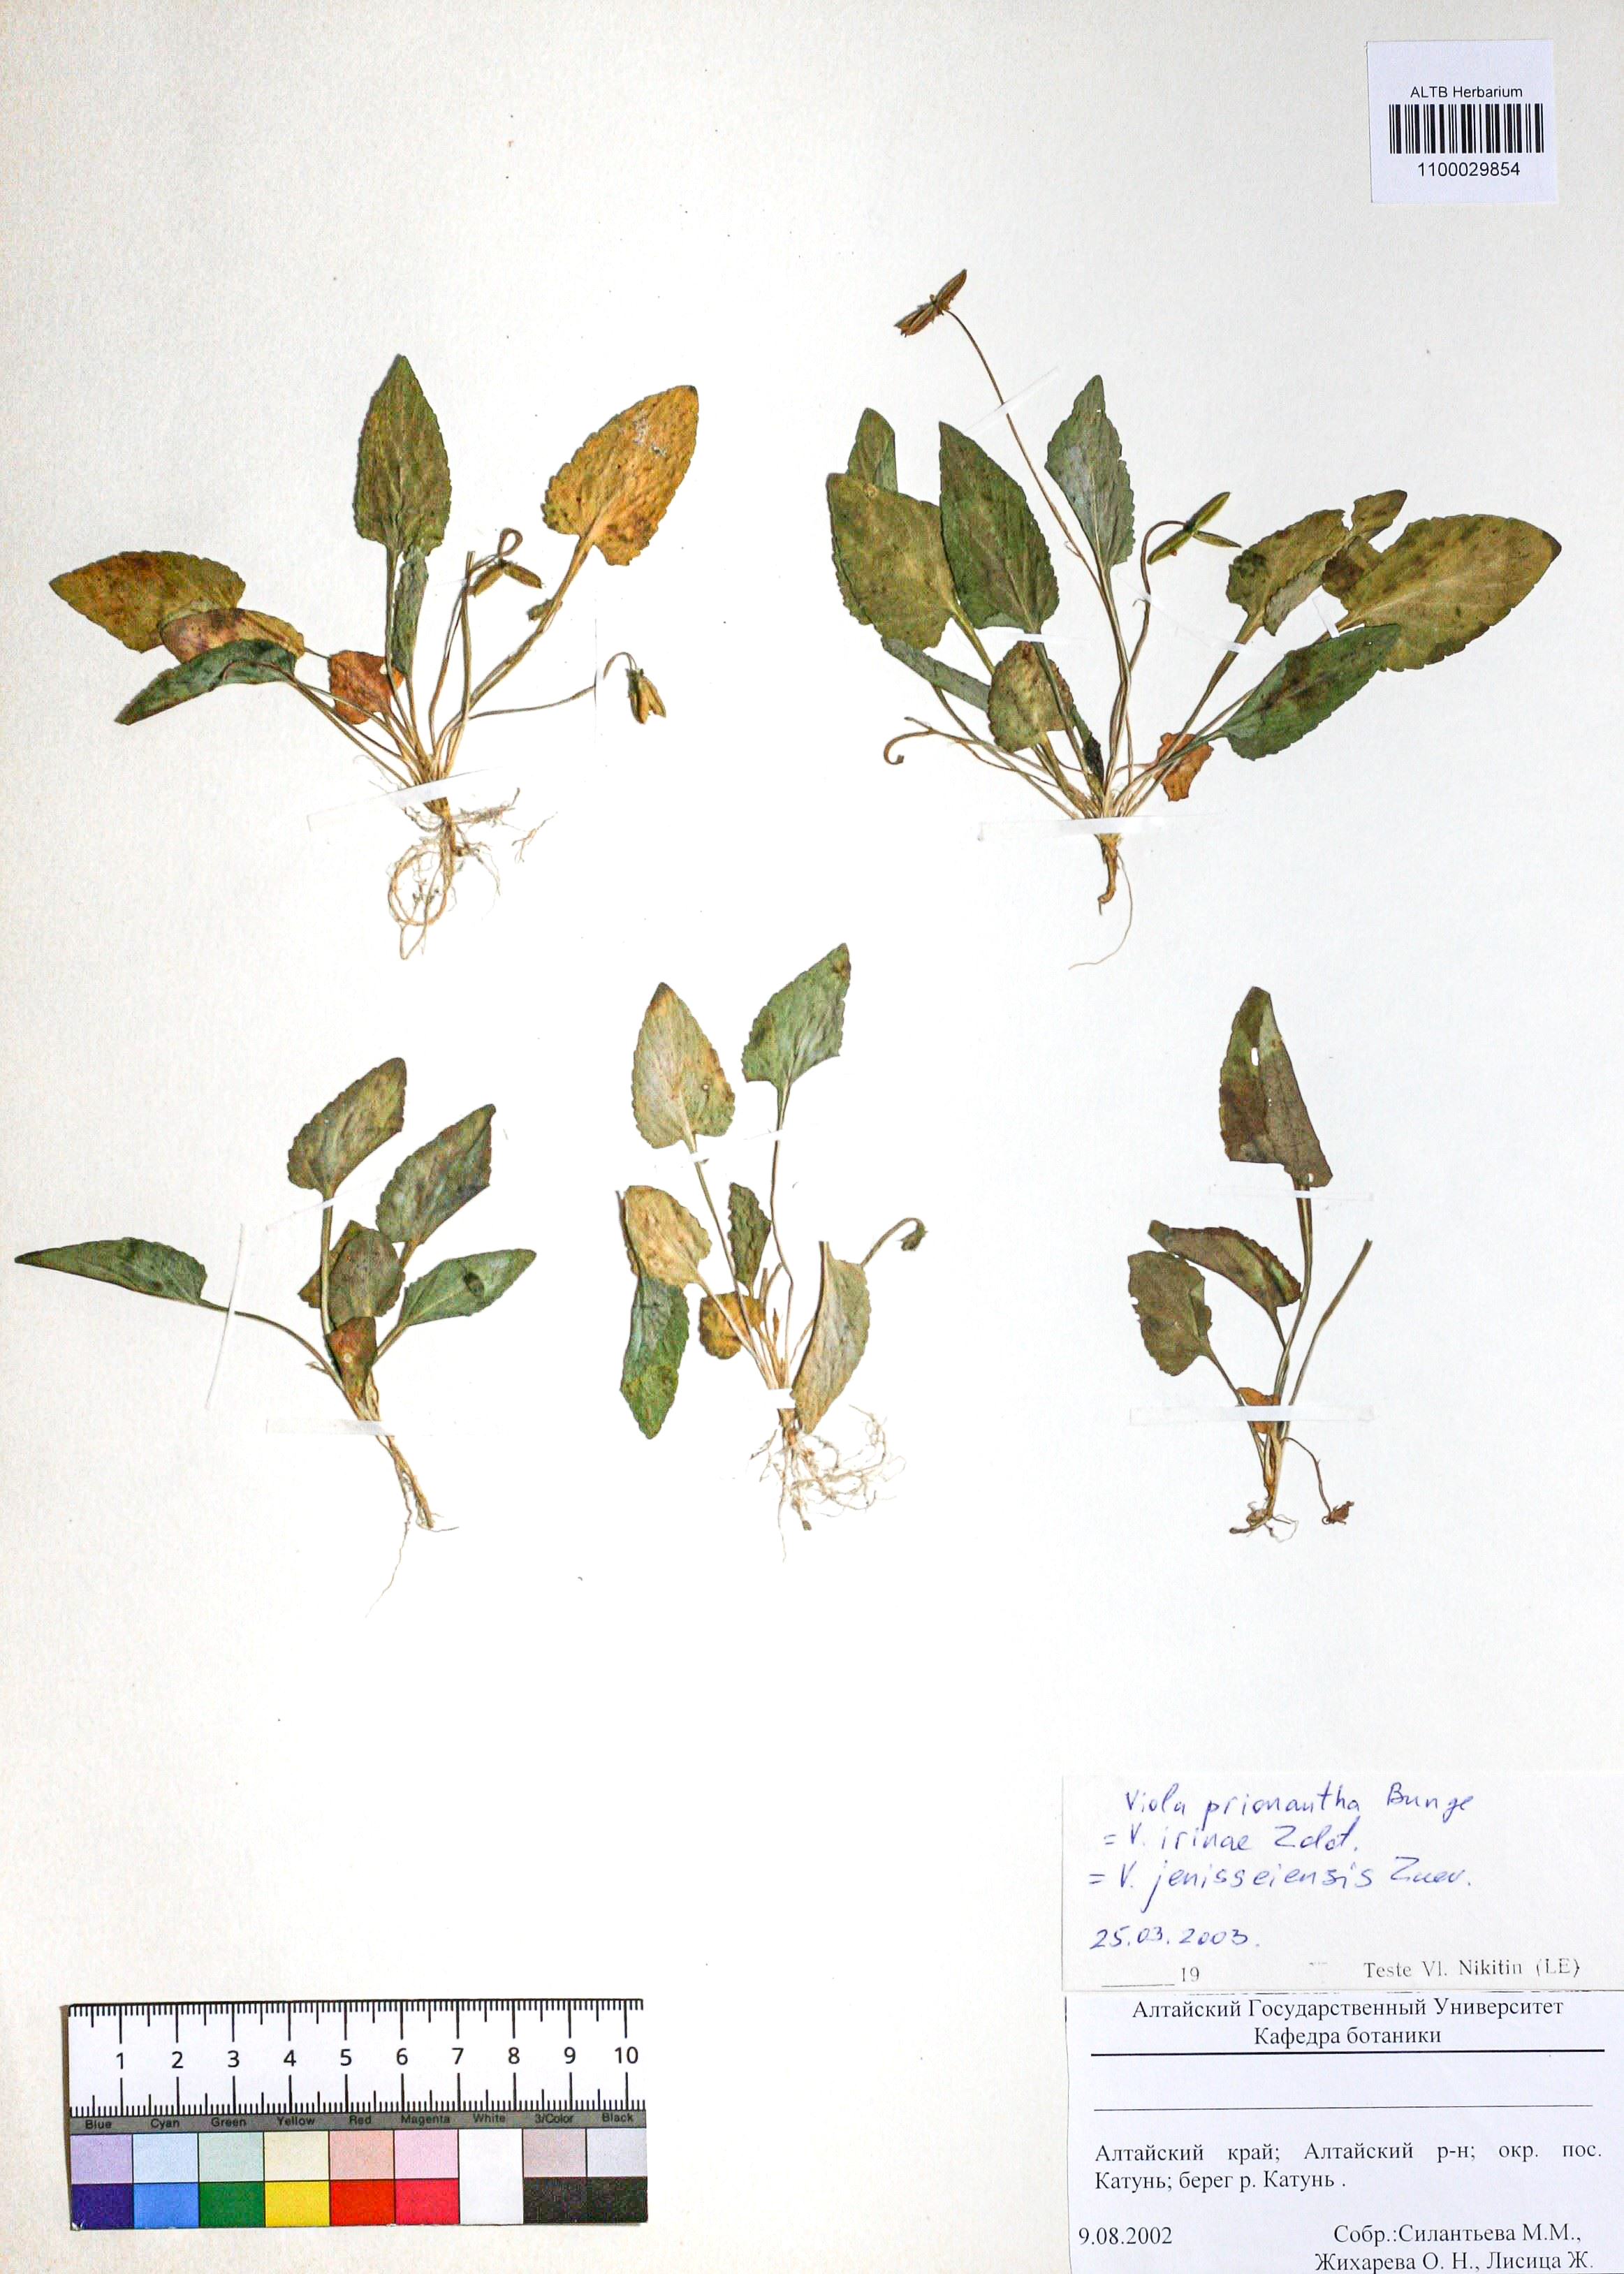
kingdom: Plantae
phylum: Tracheophyta
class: Magnoliopsida
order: Malpighiales
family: Violaceae
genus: Viola
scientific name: Viola prionantha
